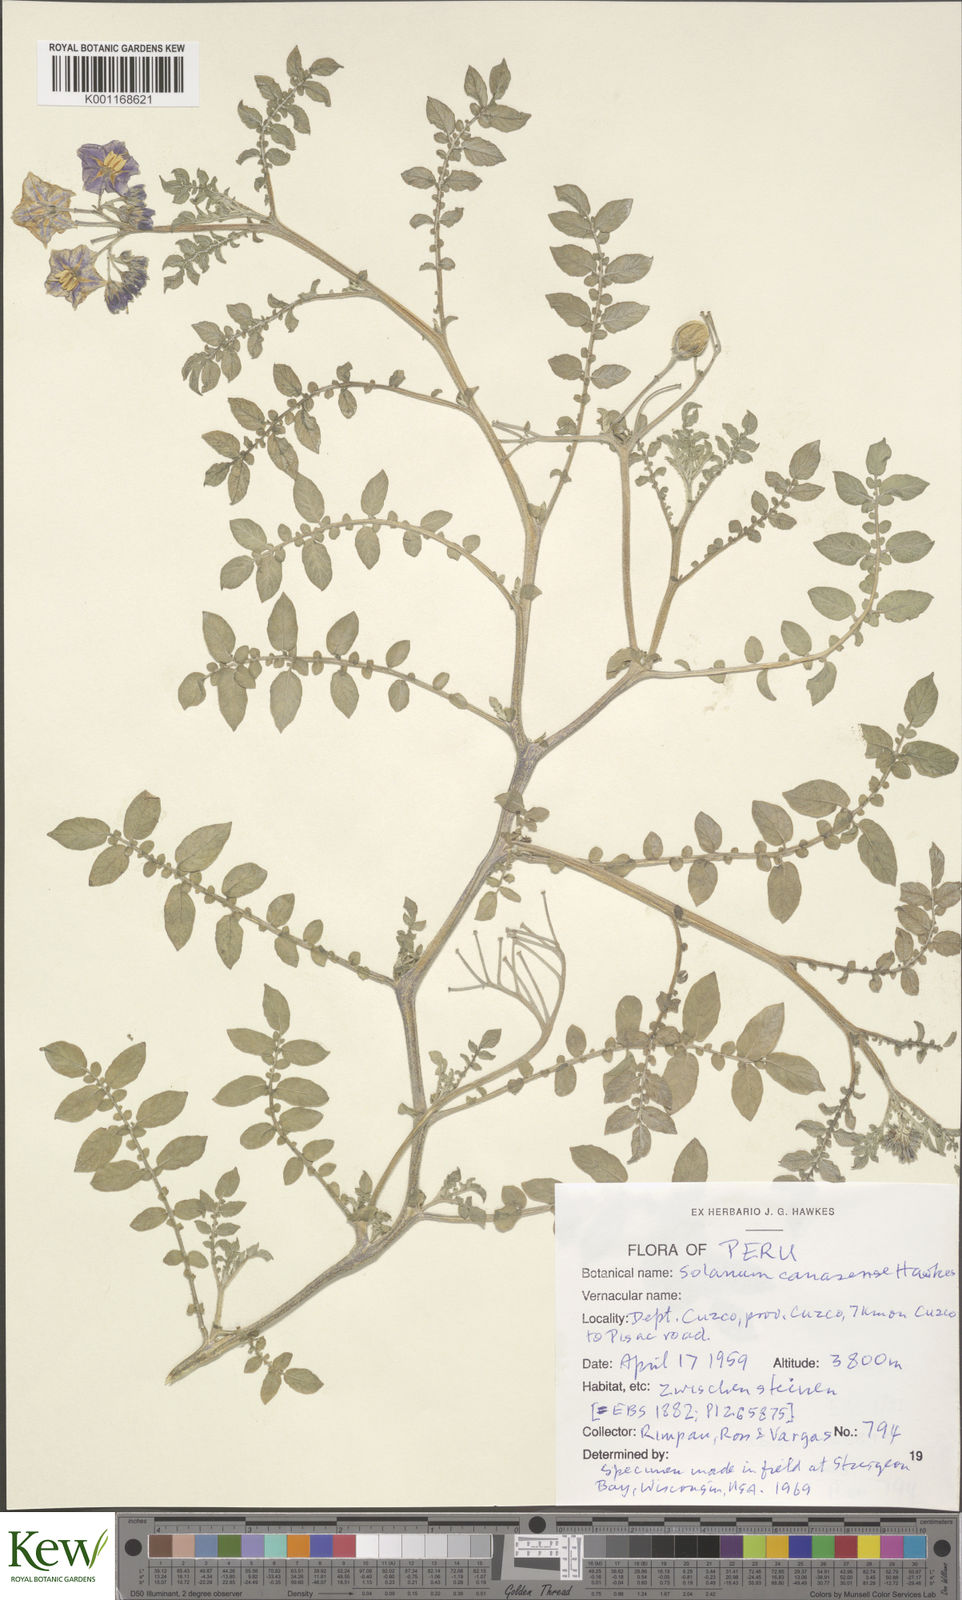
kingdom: Plantae
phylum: Tracheophyta
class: Magnoliopsida
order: Solanales
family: Solanaceae
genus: Solanum
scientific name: Solanum candolleanum
